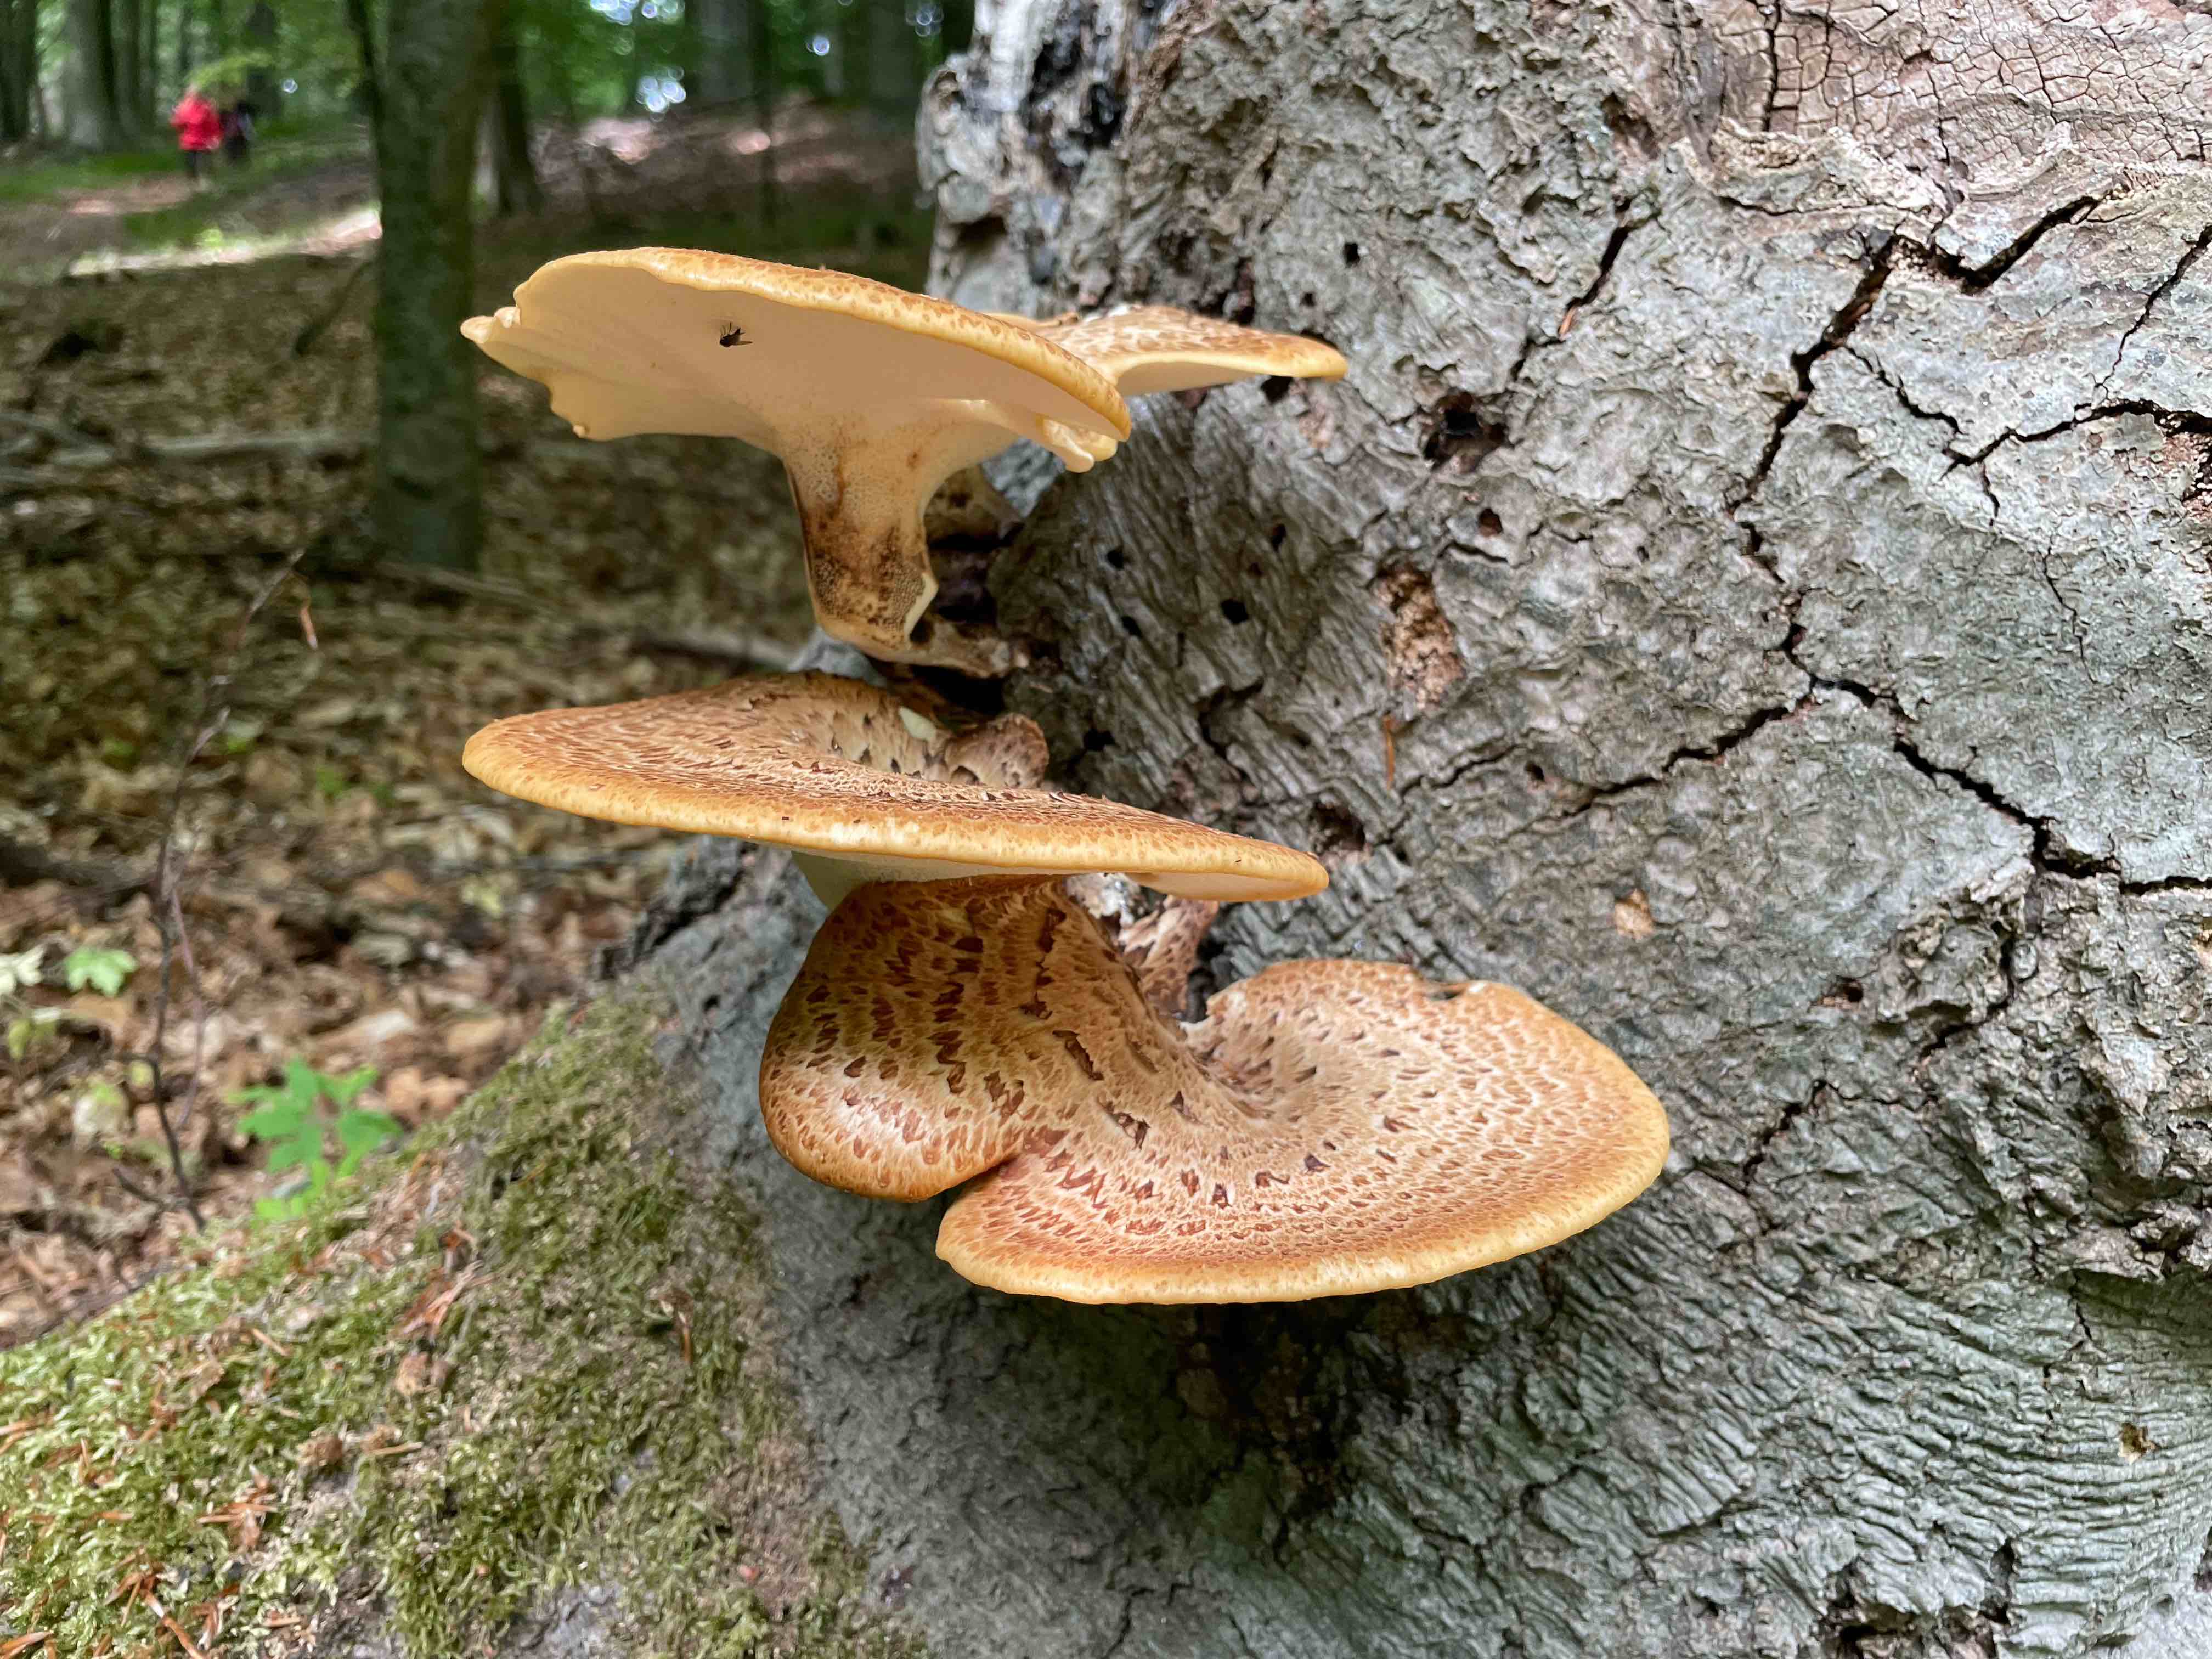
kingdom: Fungi
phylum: Basidiomycota
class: Agaricomycetes
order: Polyporales
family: Polyporaceae
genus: Cerioporus
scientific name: Cerioporus squamosus
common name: skællet stilkporesvamp
